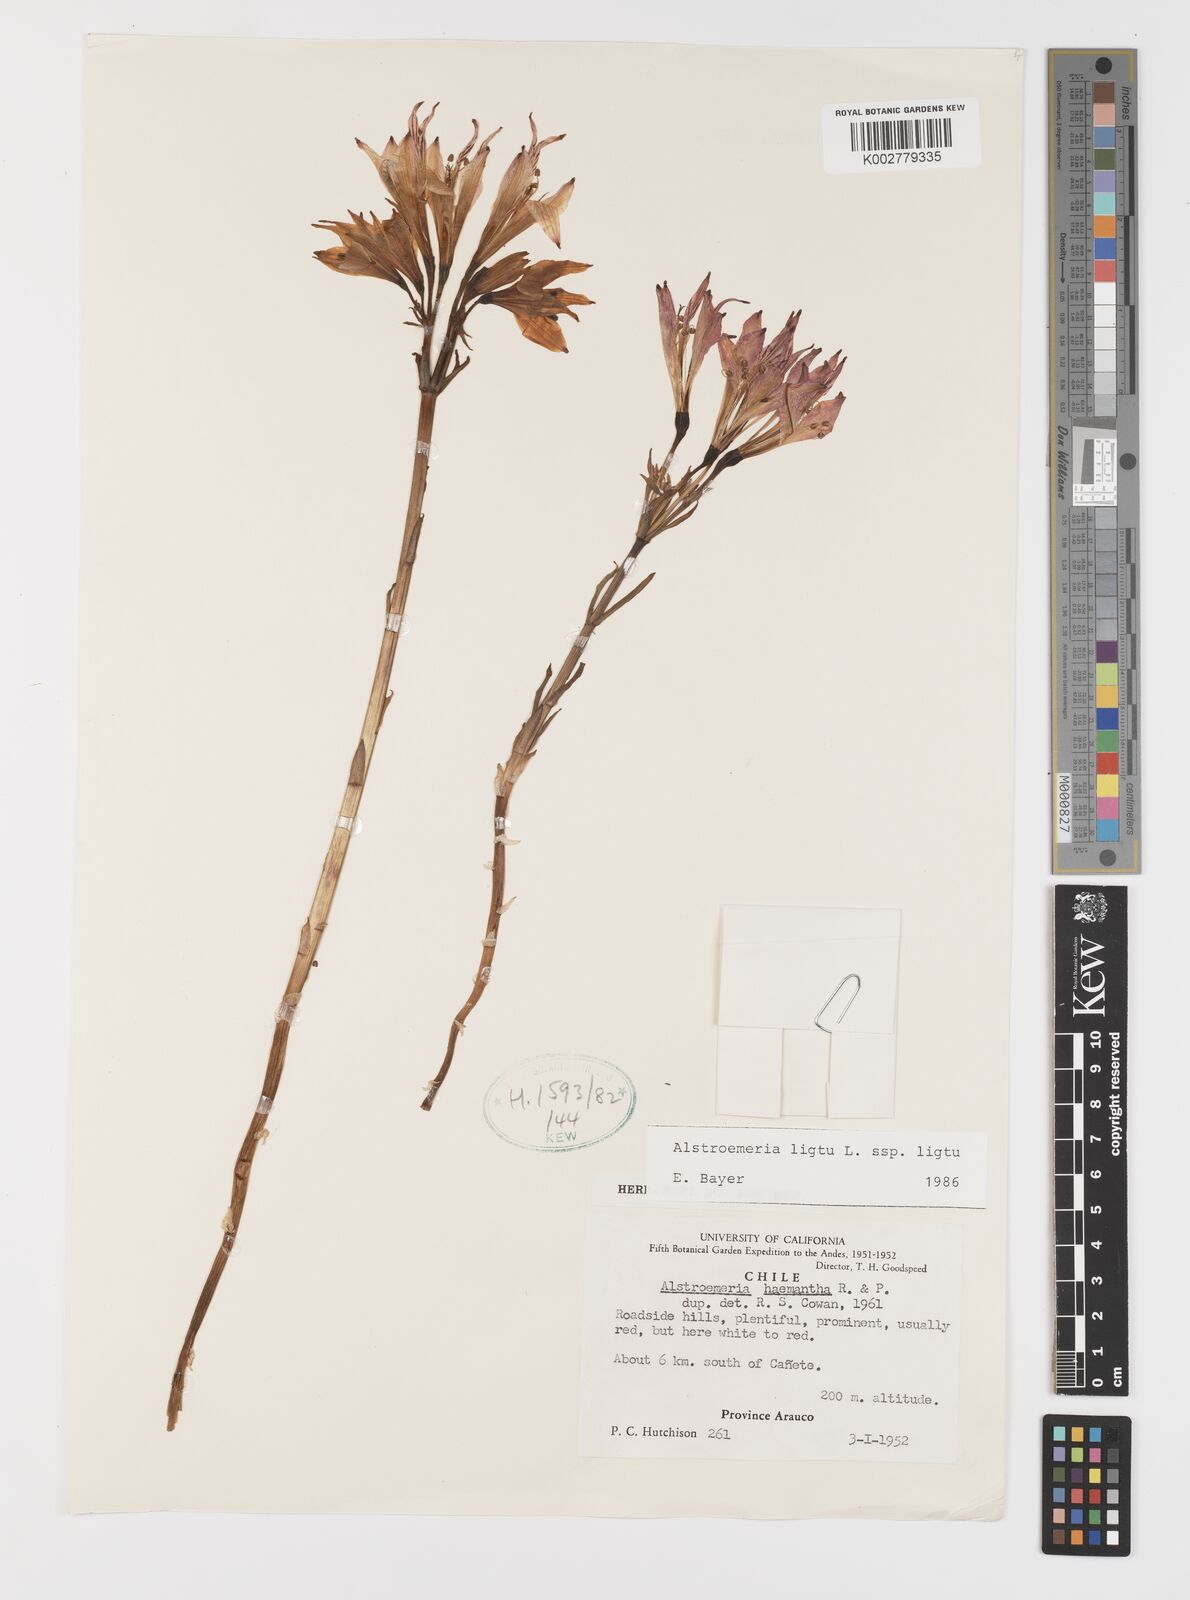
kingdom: Plantae
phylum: Tracheophyta
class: Liliopsida
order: Liliales
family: Alstroemeriaceae
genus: Alstroemeria
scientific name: Alstroemeria ligtu
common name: St. martin's-flower
